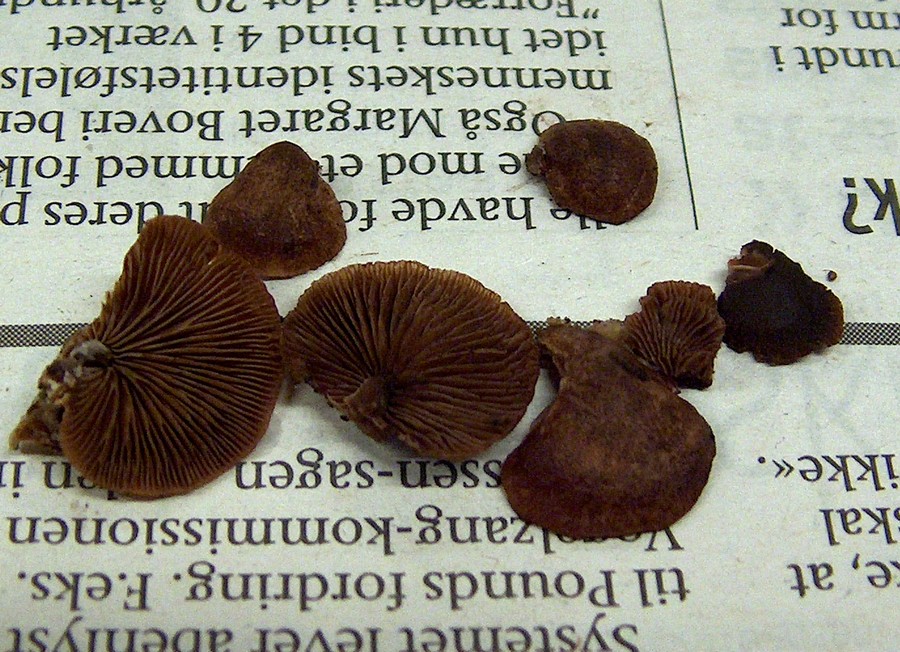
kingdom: Fungi
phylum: Basidiomycota
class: Agaricomycetes
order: Agaricales
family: Strophariaceae
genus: Deconica
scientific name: Deconica horizontalis
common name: ved-stråhat
